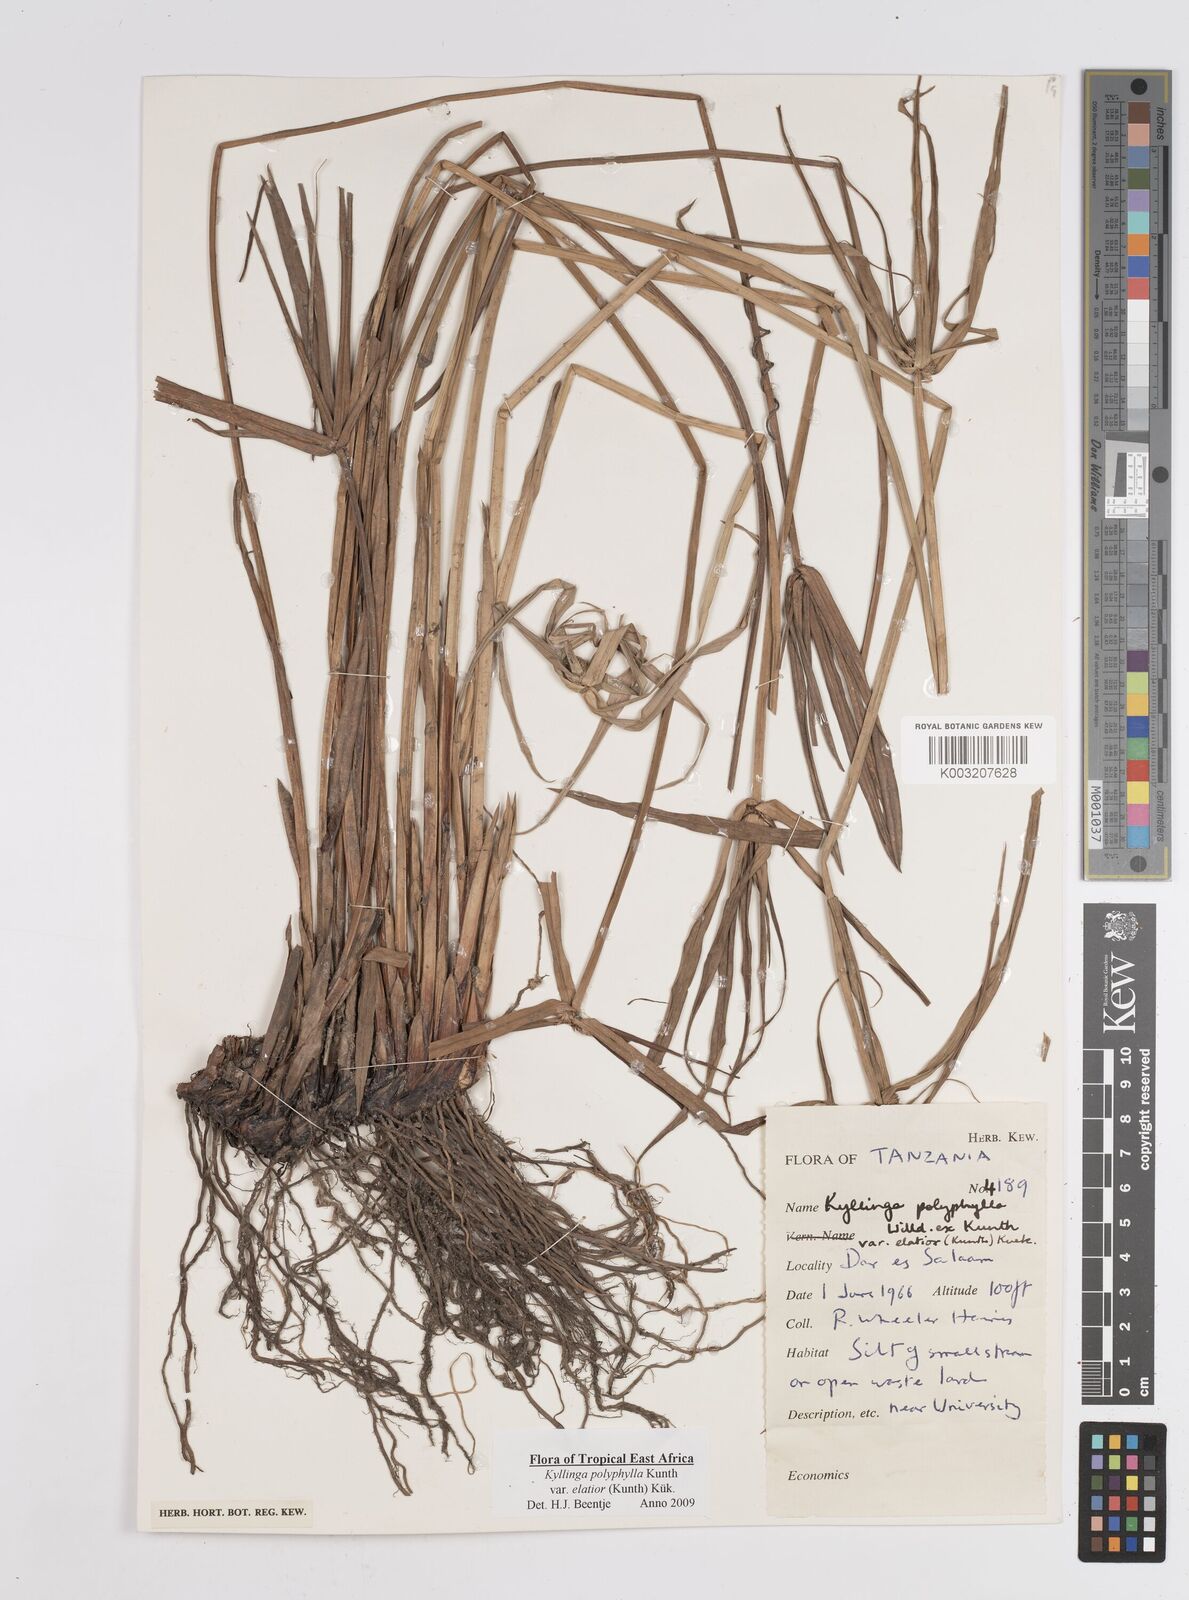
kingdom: Plantae
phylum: Tracheophyta
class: Liliopsida
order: Poales
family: Cyperaceae
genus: Cyperus
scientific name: Cyperus
